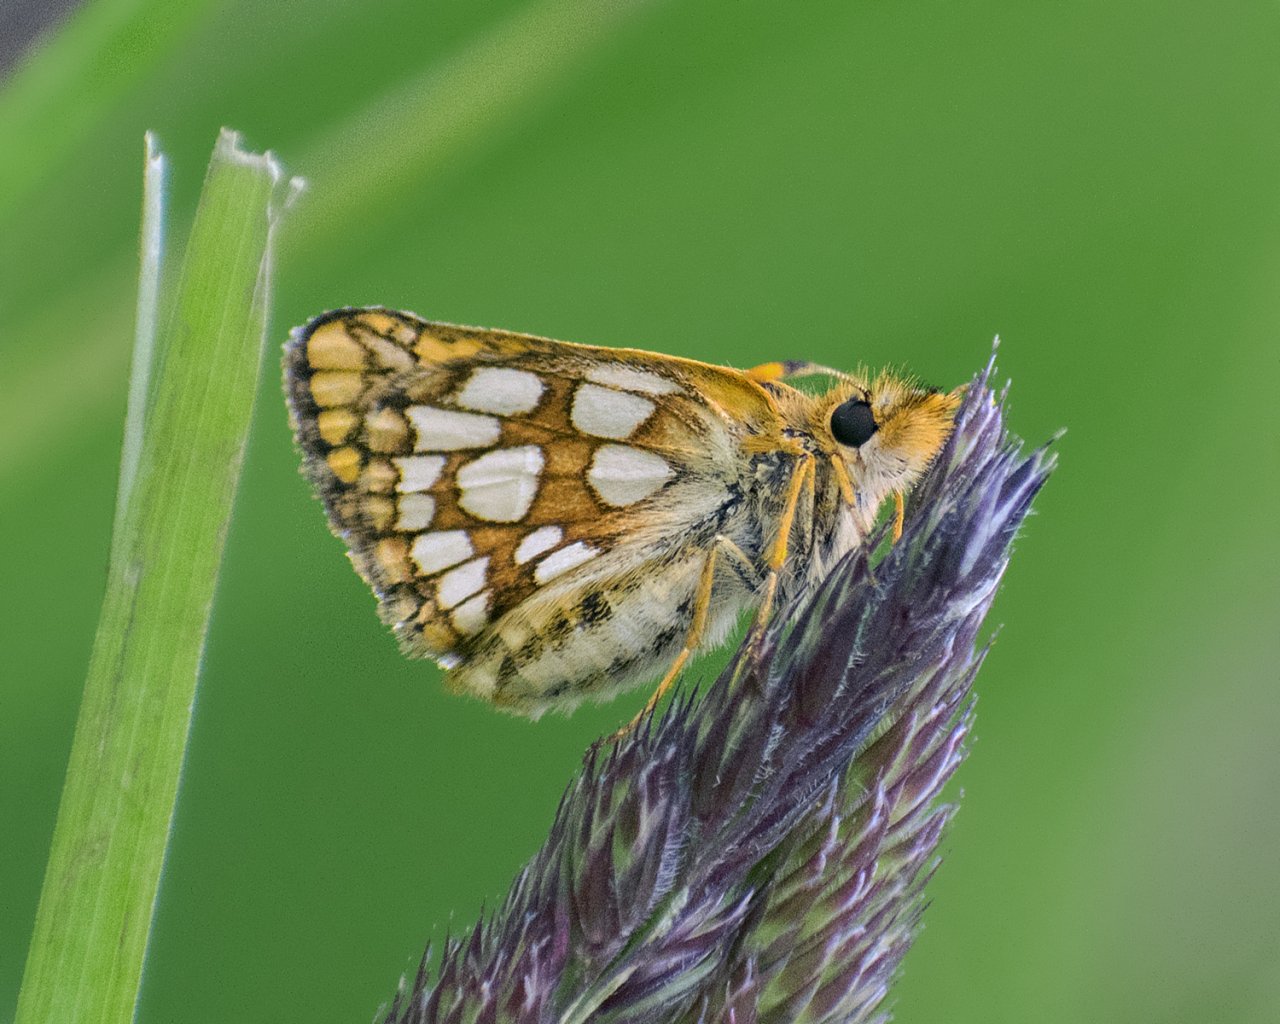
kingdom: Animalia
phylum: Arthropoda
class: Insecta
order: Lepidoptera
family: Hesperiidae
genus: Carterocephalus
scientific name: Carterocephalus palaemon
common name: Chequered Skipper
